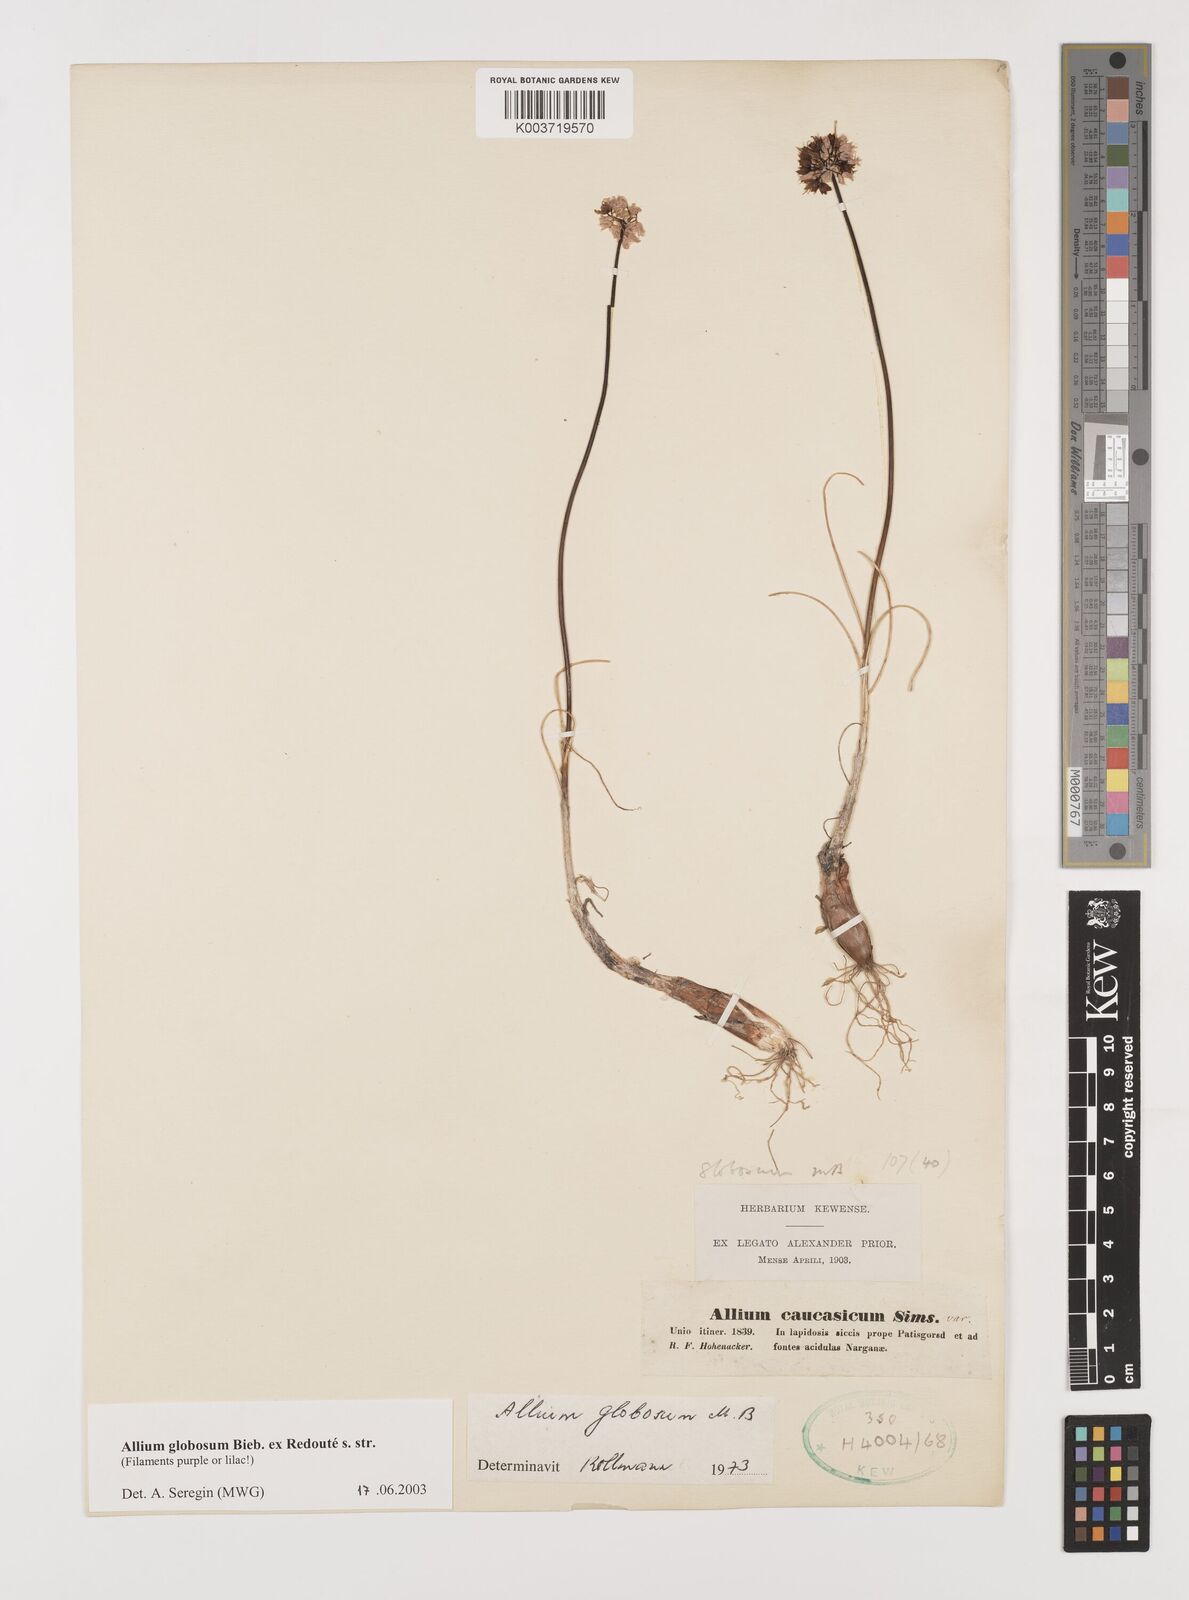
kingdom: Plantae
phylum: Tracheophyta
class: Liliopsida
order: Asparagales
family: Amaryllidaceae
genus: Allium
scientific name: Allium saxatile
